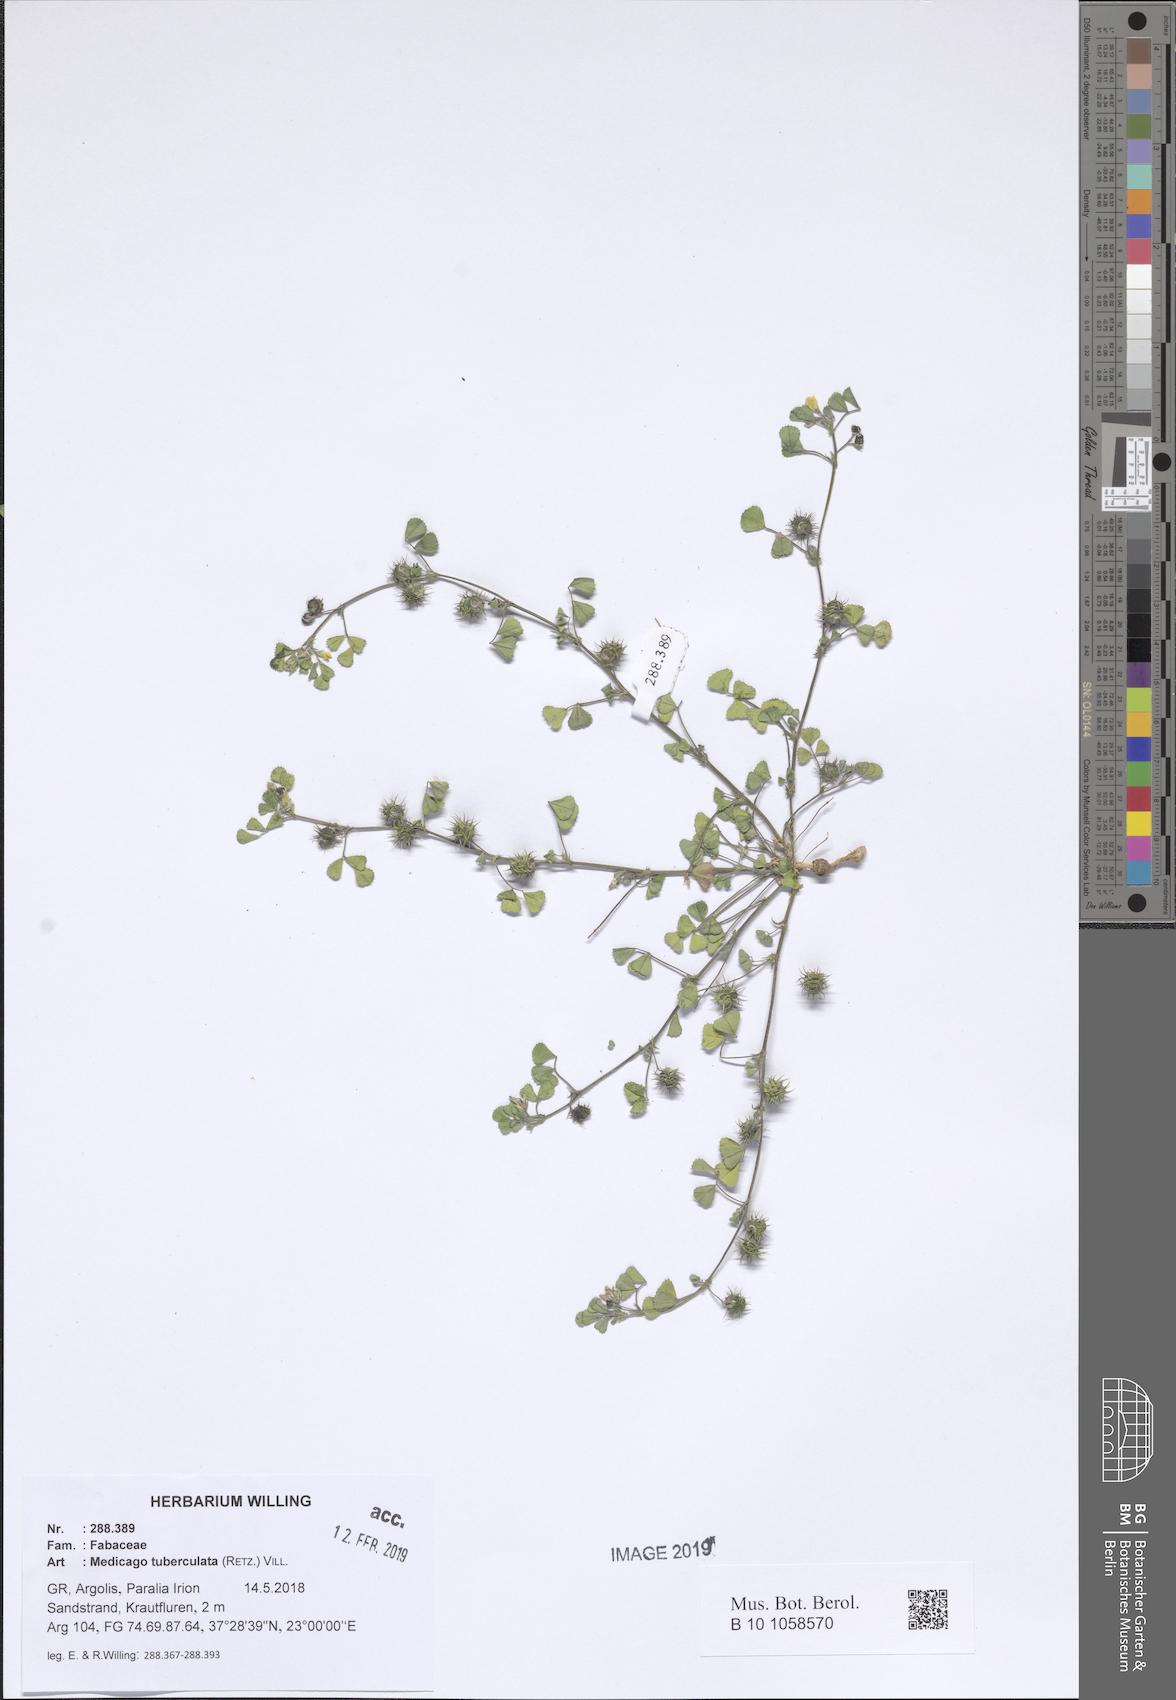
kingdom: Plantae
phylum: Tracheophyta
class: Magnoliopsida
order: Fabales
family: Fabaceae
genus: Medicago
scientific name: Medicago turbinata
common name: Southern medick
